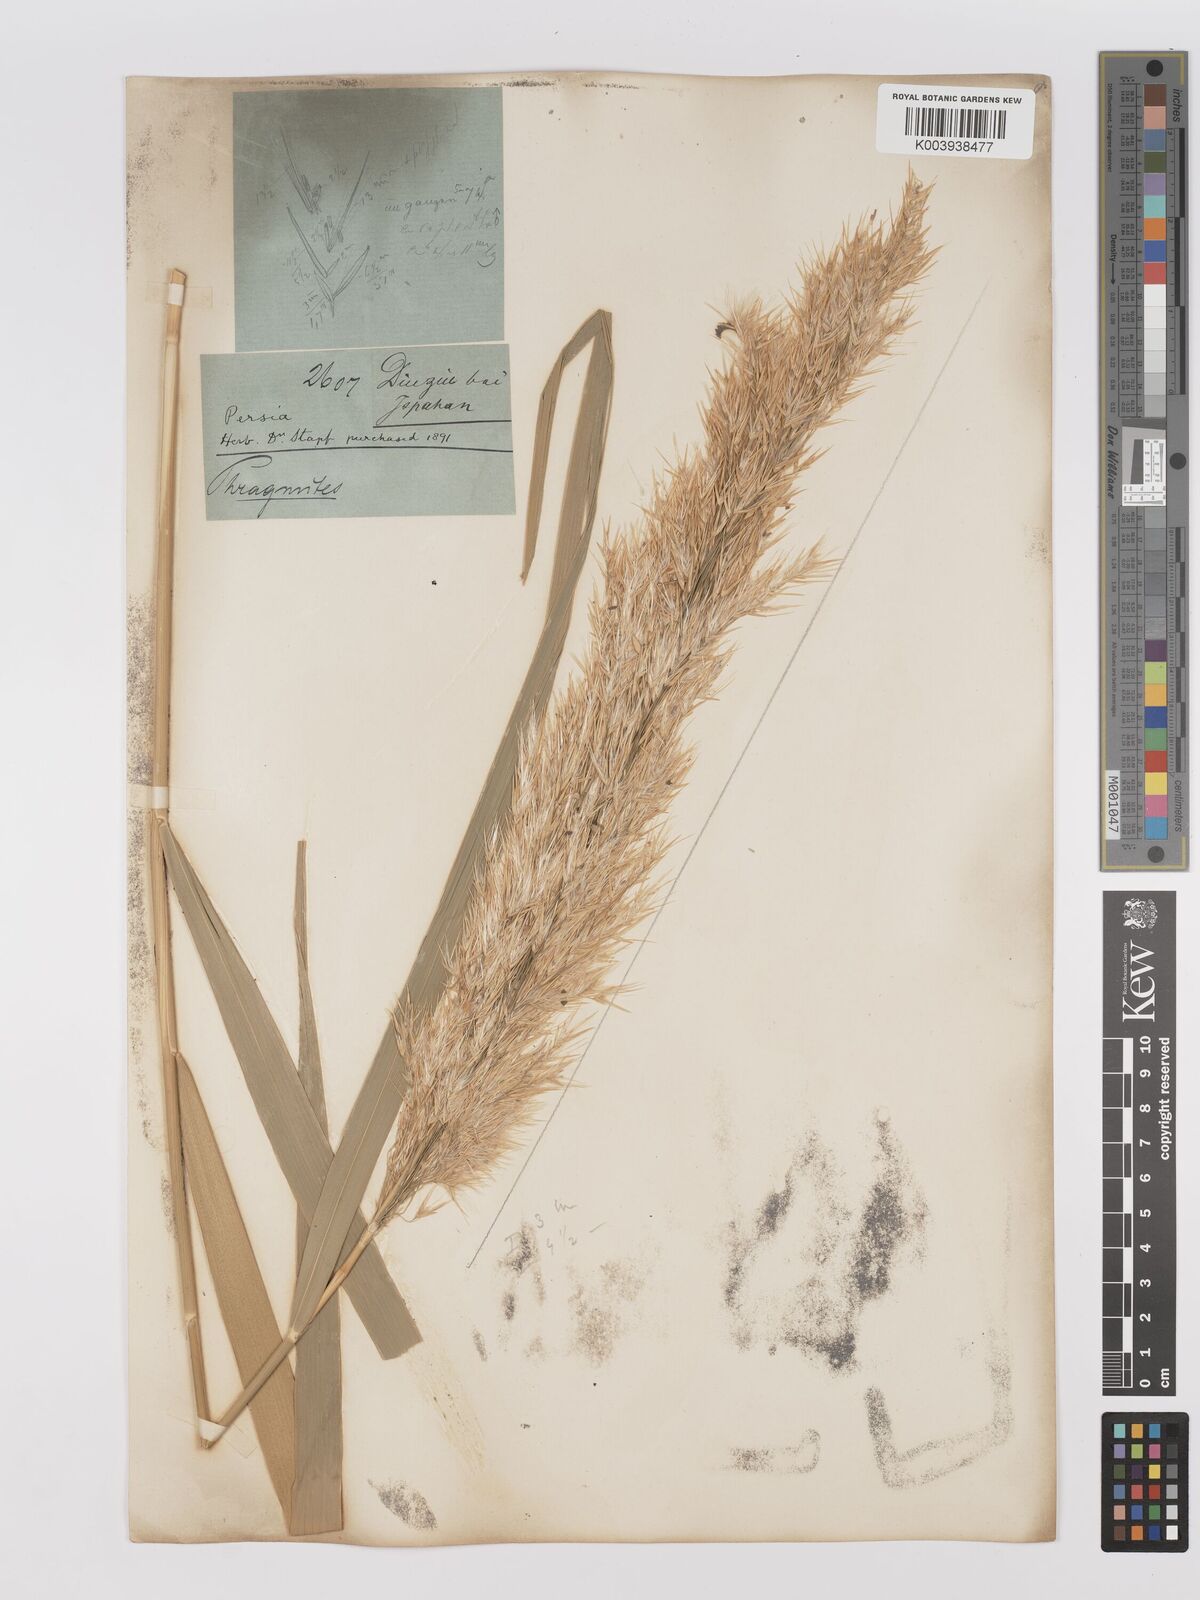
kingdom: Plantae
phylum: Tracheophyta
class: Liliopsida
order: Poales
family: Poaceae
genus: Phragmites
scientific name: Phragmites australis
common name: Common reed
